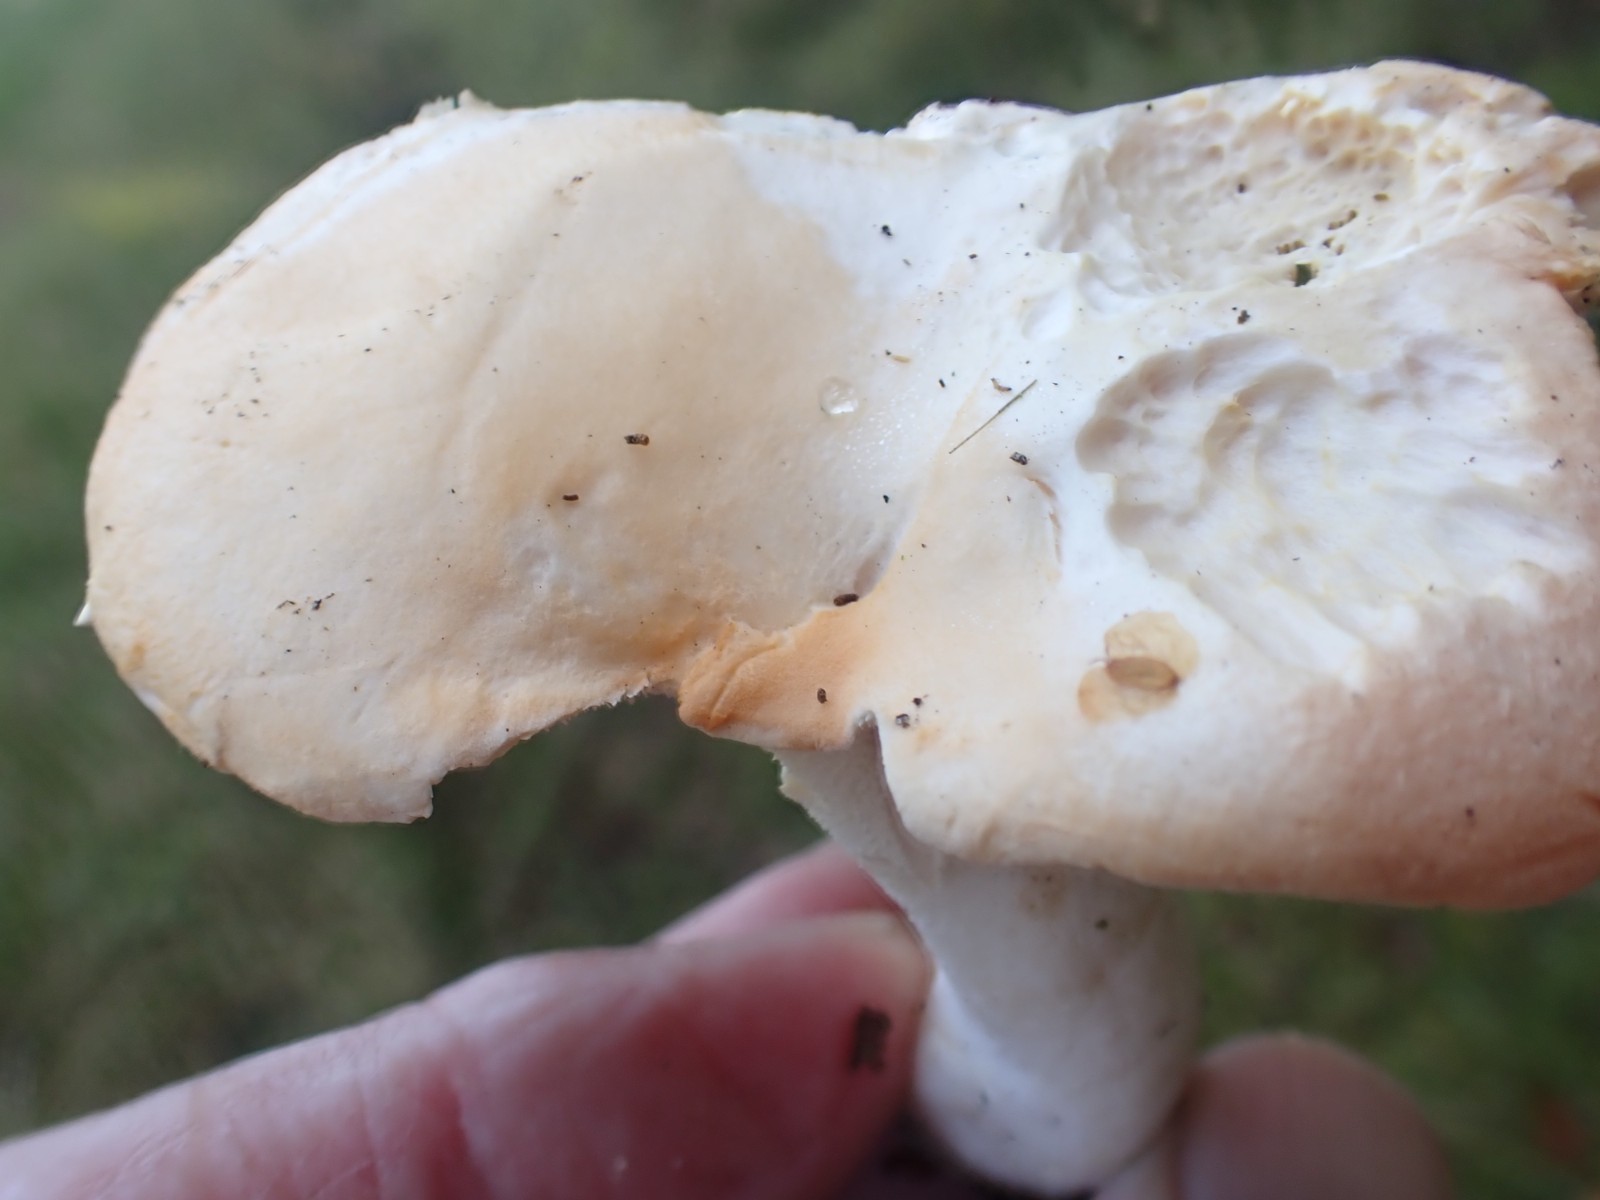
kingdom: Fungi
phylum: Basidiomycota
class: Agaricomycetes
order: Cantharellales
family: Hydnaceae
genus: Hydnum
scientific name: Hydnum repandum
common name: almindelig pigsvamp
